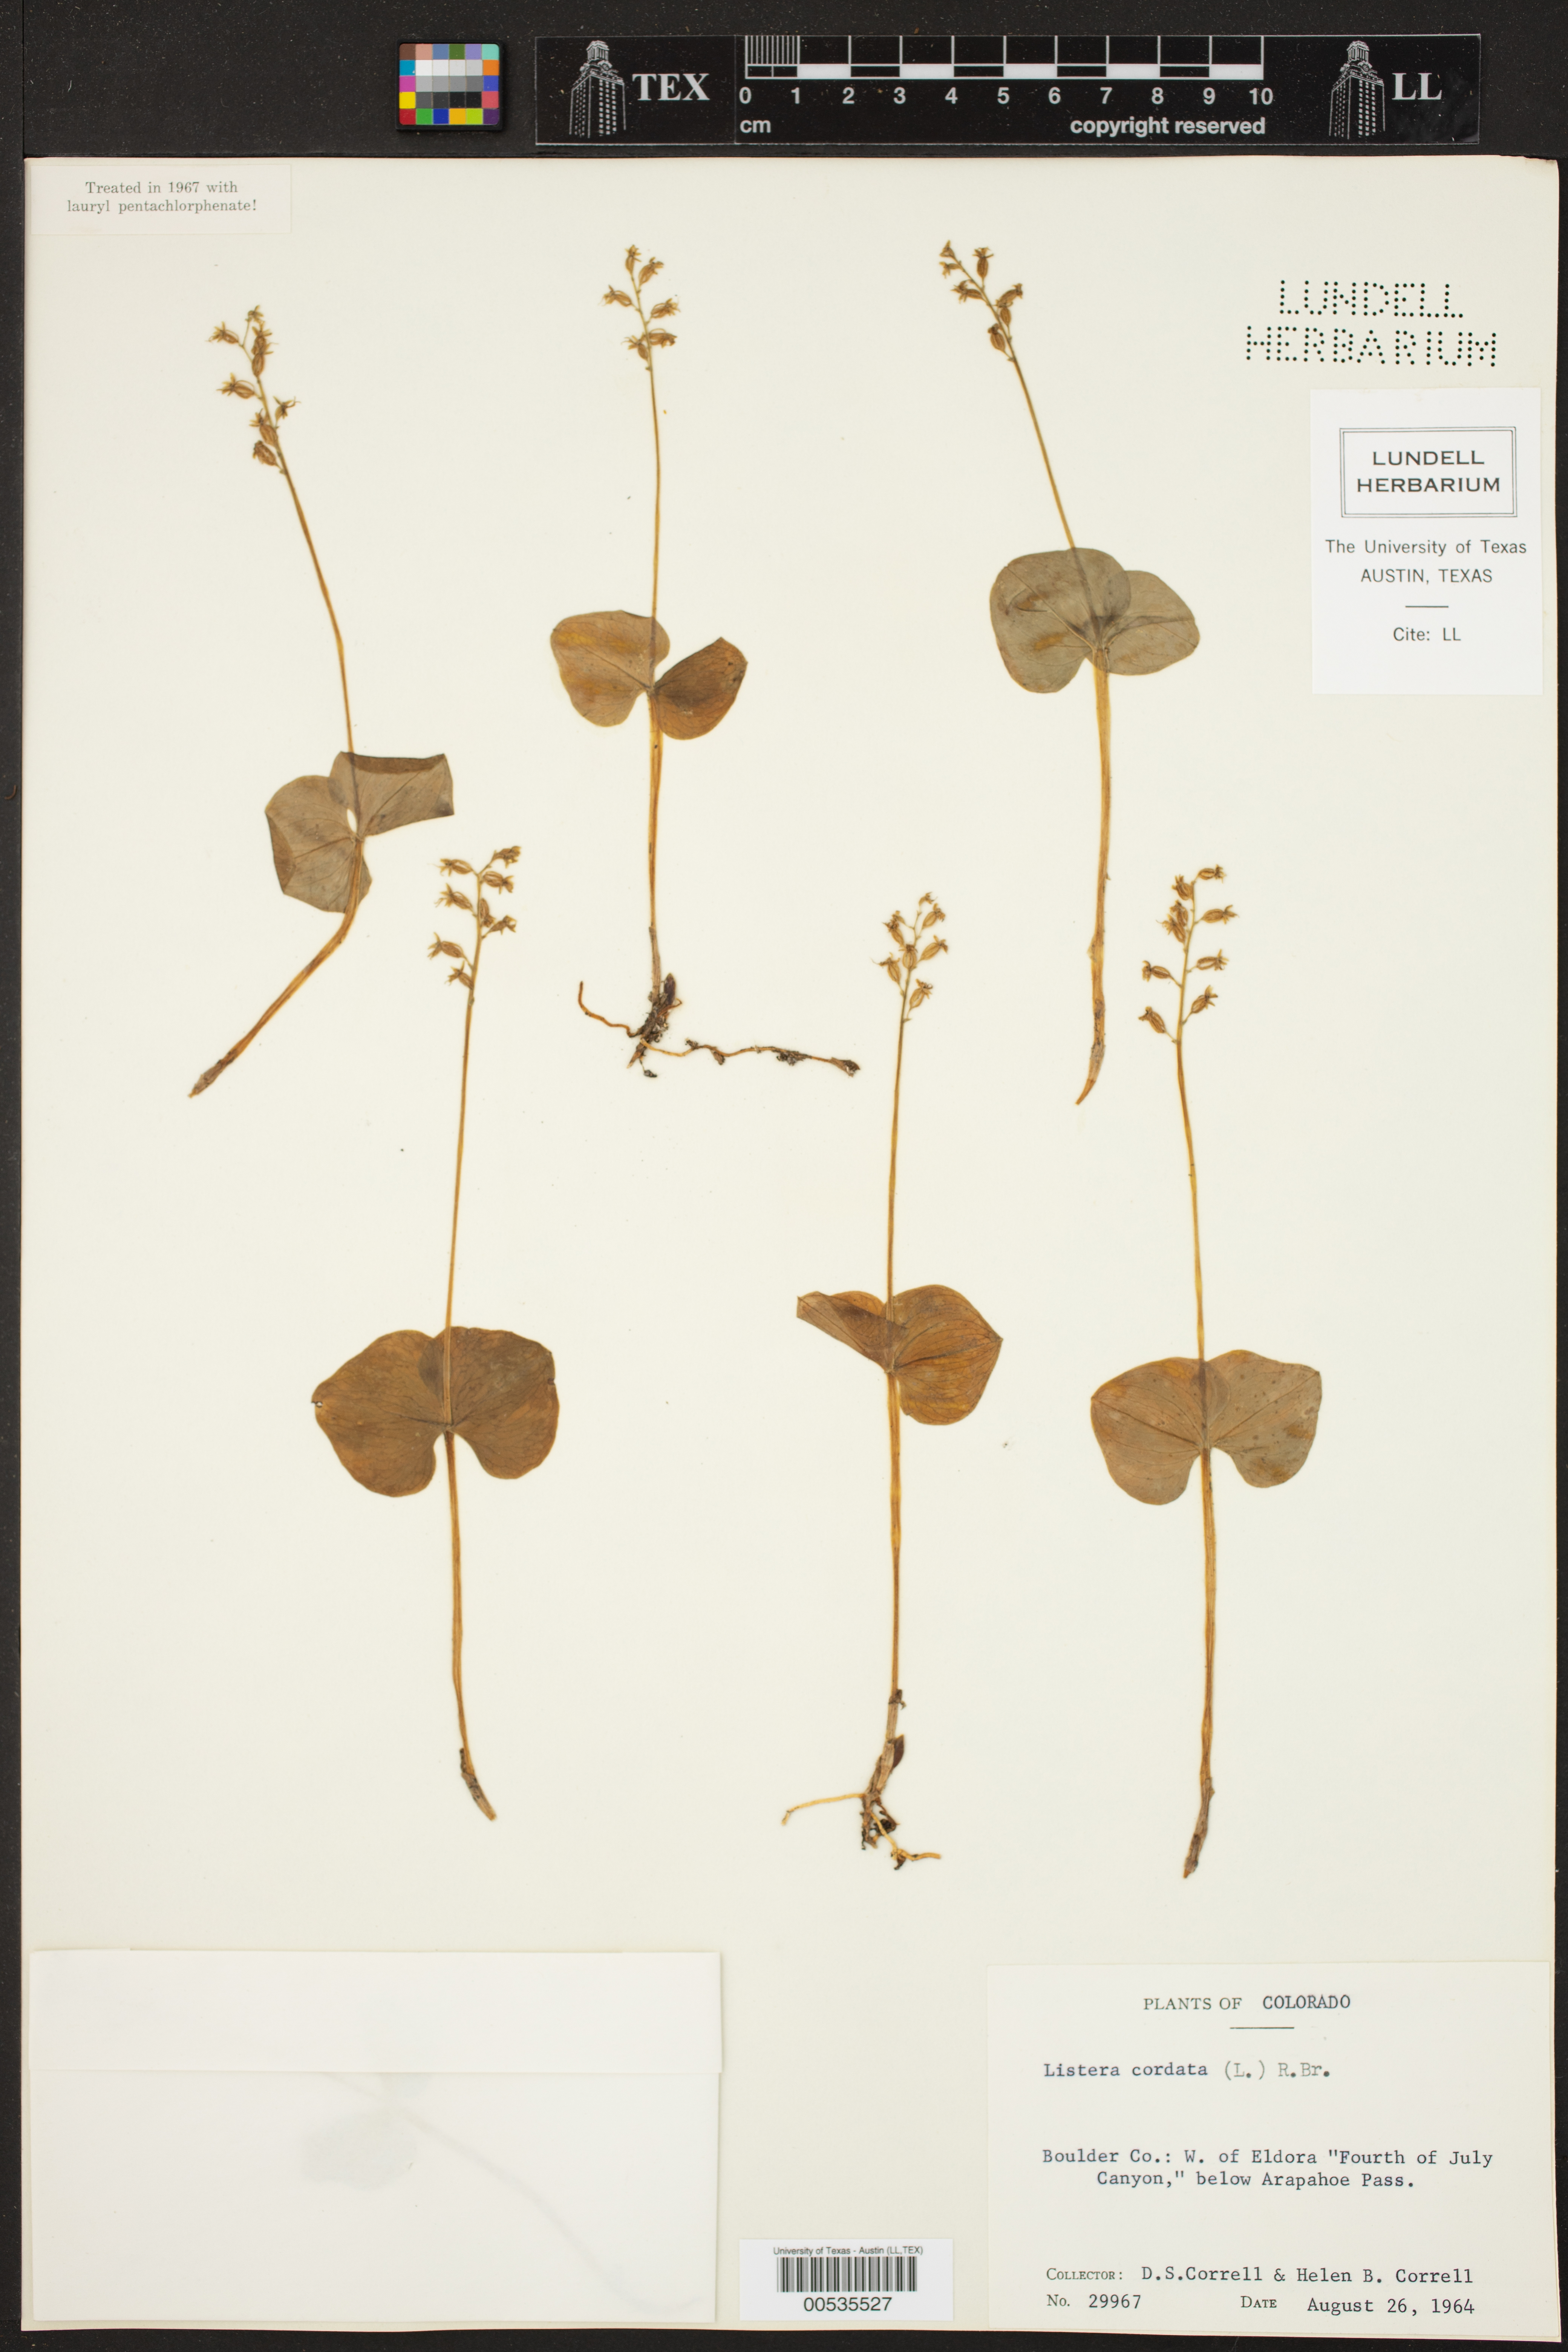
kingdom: Plantae
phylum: Tracheophyta
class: Liliopsida
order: Asparagales
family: Orchidaceae
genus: Neottia
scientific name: Neottia cordata
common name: Lesser twayblade
